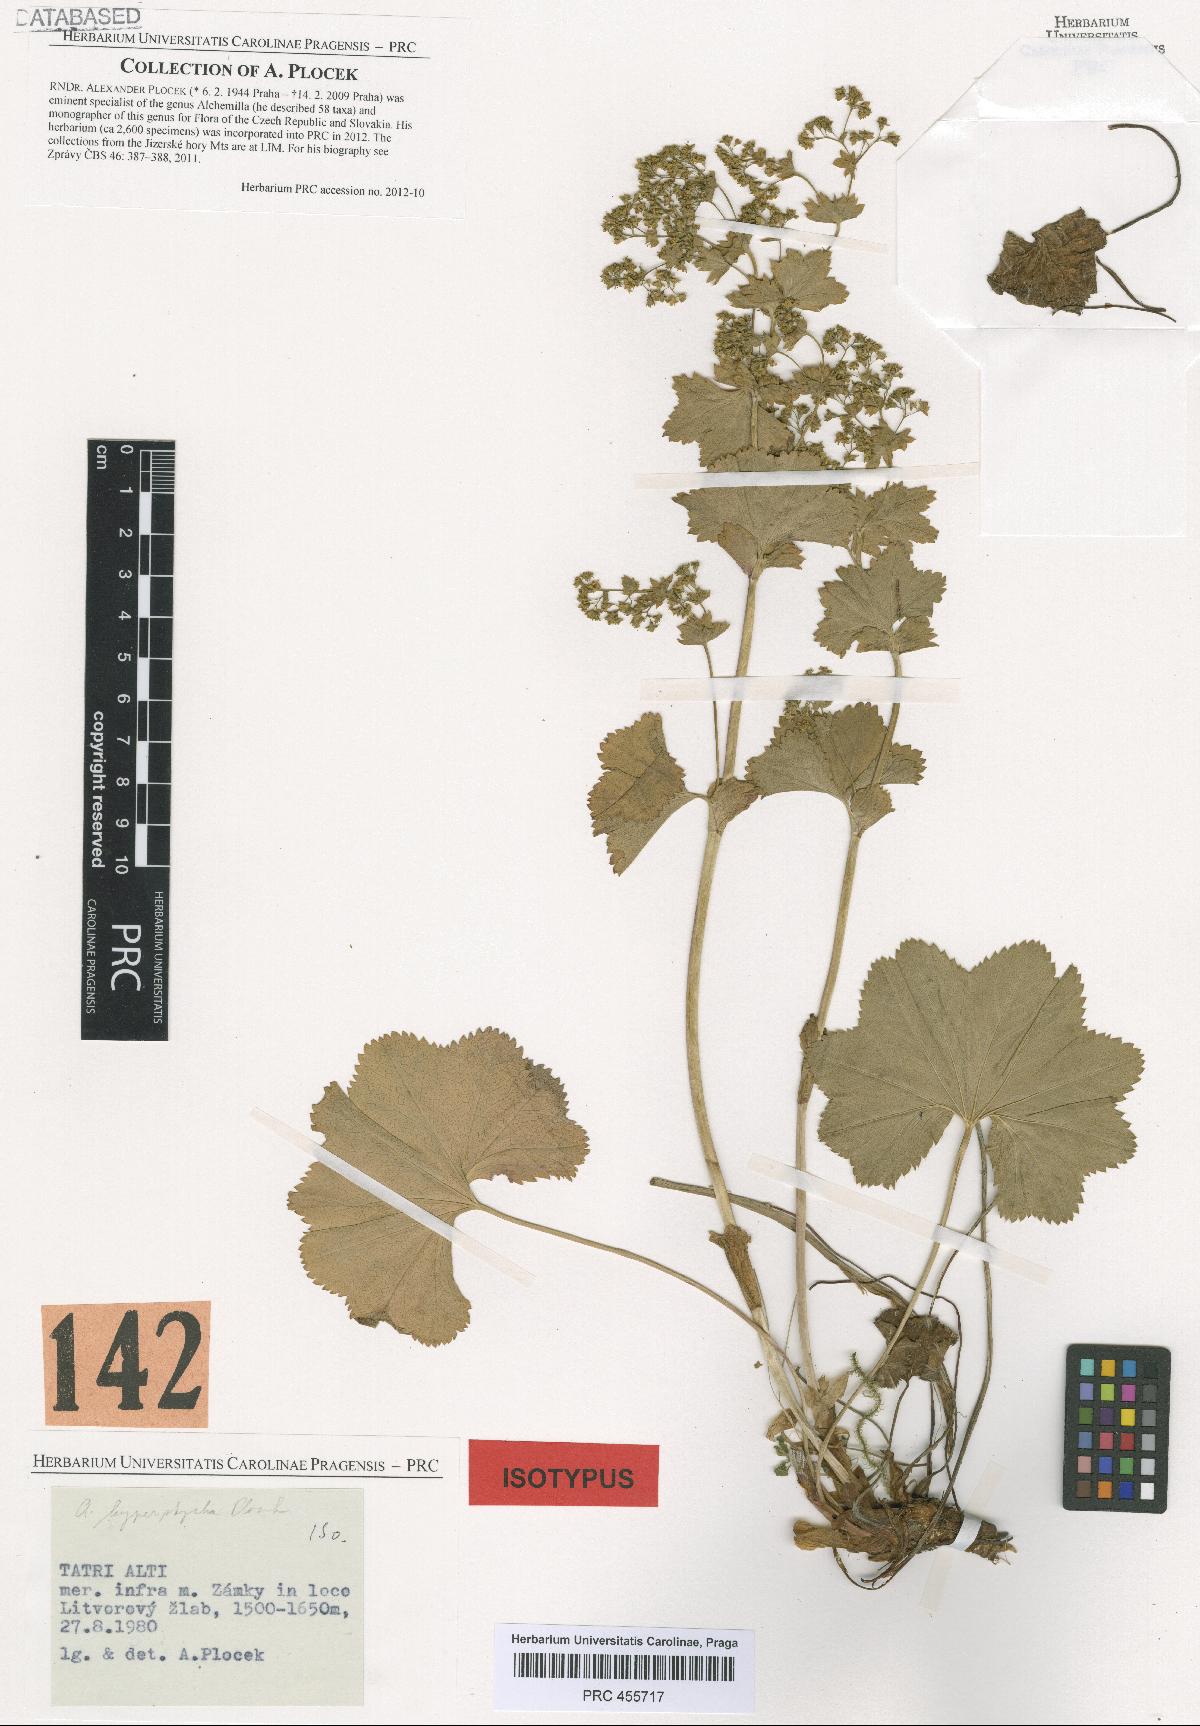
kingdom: Plantae
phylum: Tracheophyta
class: Magnoliopsida
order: Rosales
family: Rosaceae
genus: Alchemilla
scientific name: Alchemilla hyperptycha
